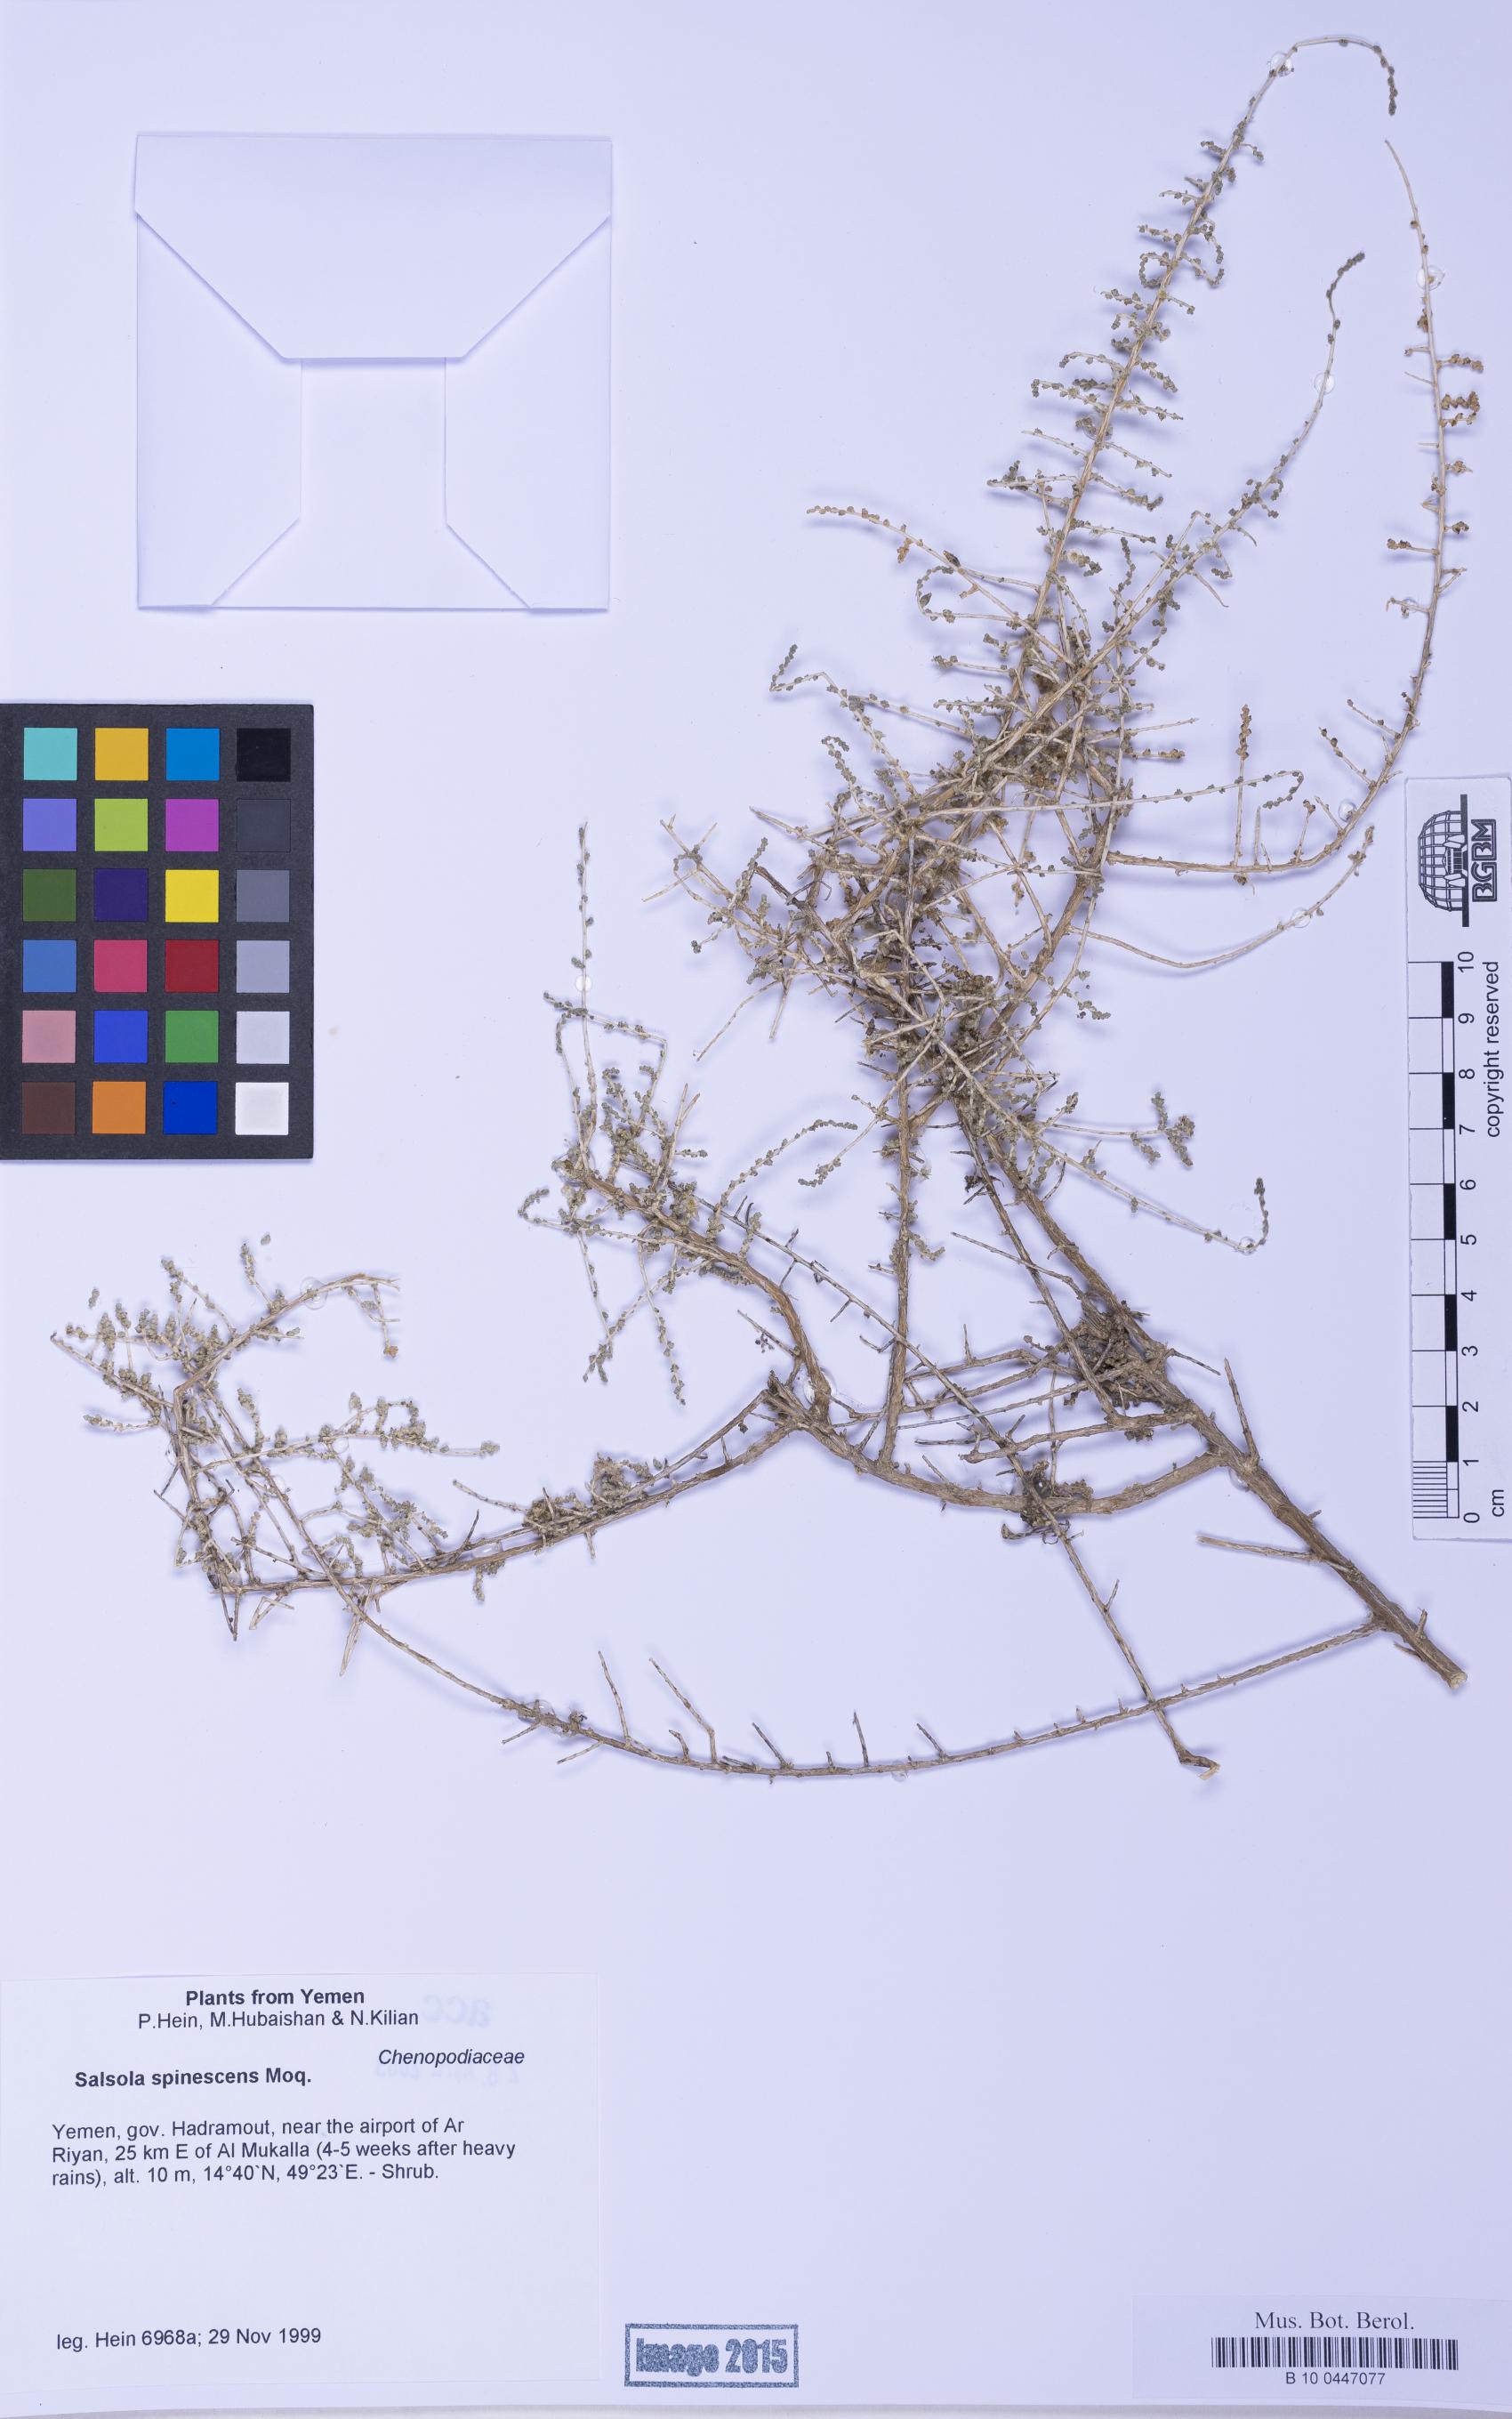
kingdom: Plantae
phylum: Tracheophyta
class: Magnoliopsida
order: Caryophyllales
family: Amaranthaceae
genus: Caroxylon
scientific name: Caroxylon spinescens
